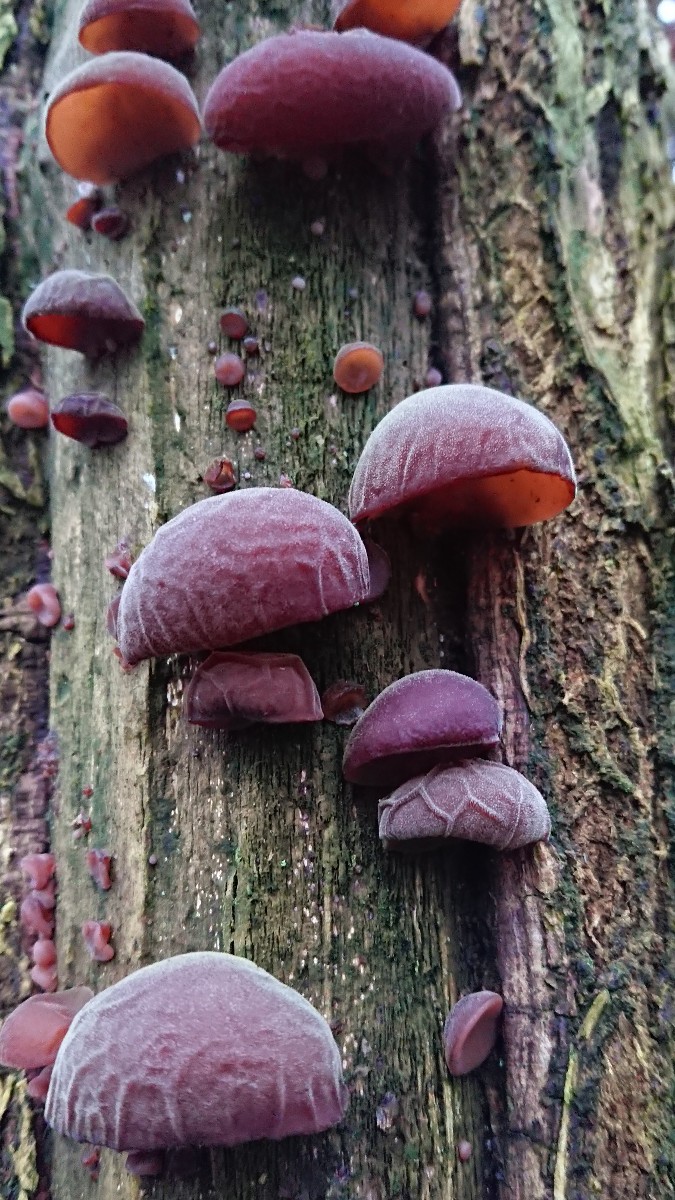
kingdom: Fungi
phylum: Basidiomycota
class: Agaricomycetes
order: Auriculariales
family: Auriculariaceae
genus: Auricularia
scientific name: Auricularia auricula-judae
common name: almindelig judasøre
